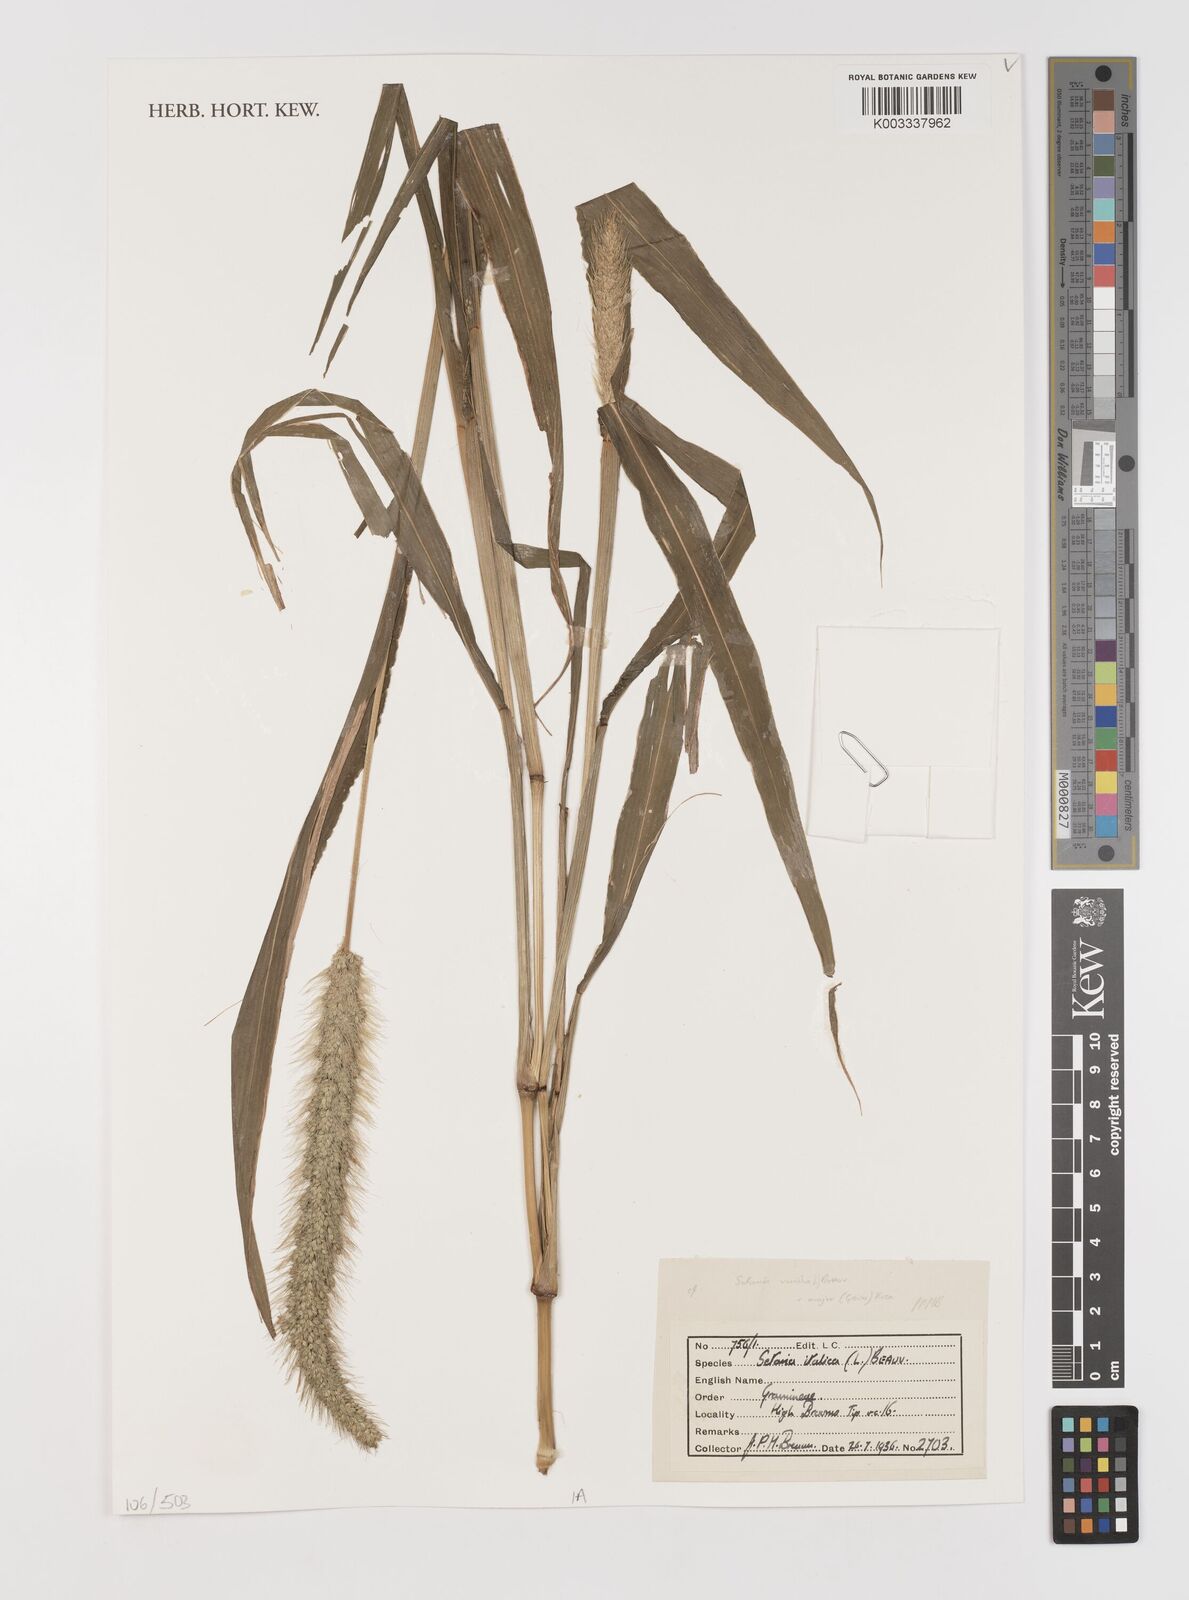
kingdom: Plantae
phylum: Tracheophyta
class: Liliopsida
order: Poales
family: Poaceae
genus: Setaria
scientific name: Setaria italica
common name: Foxtail bristle-grass
